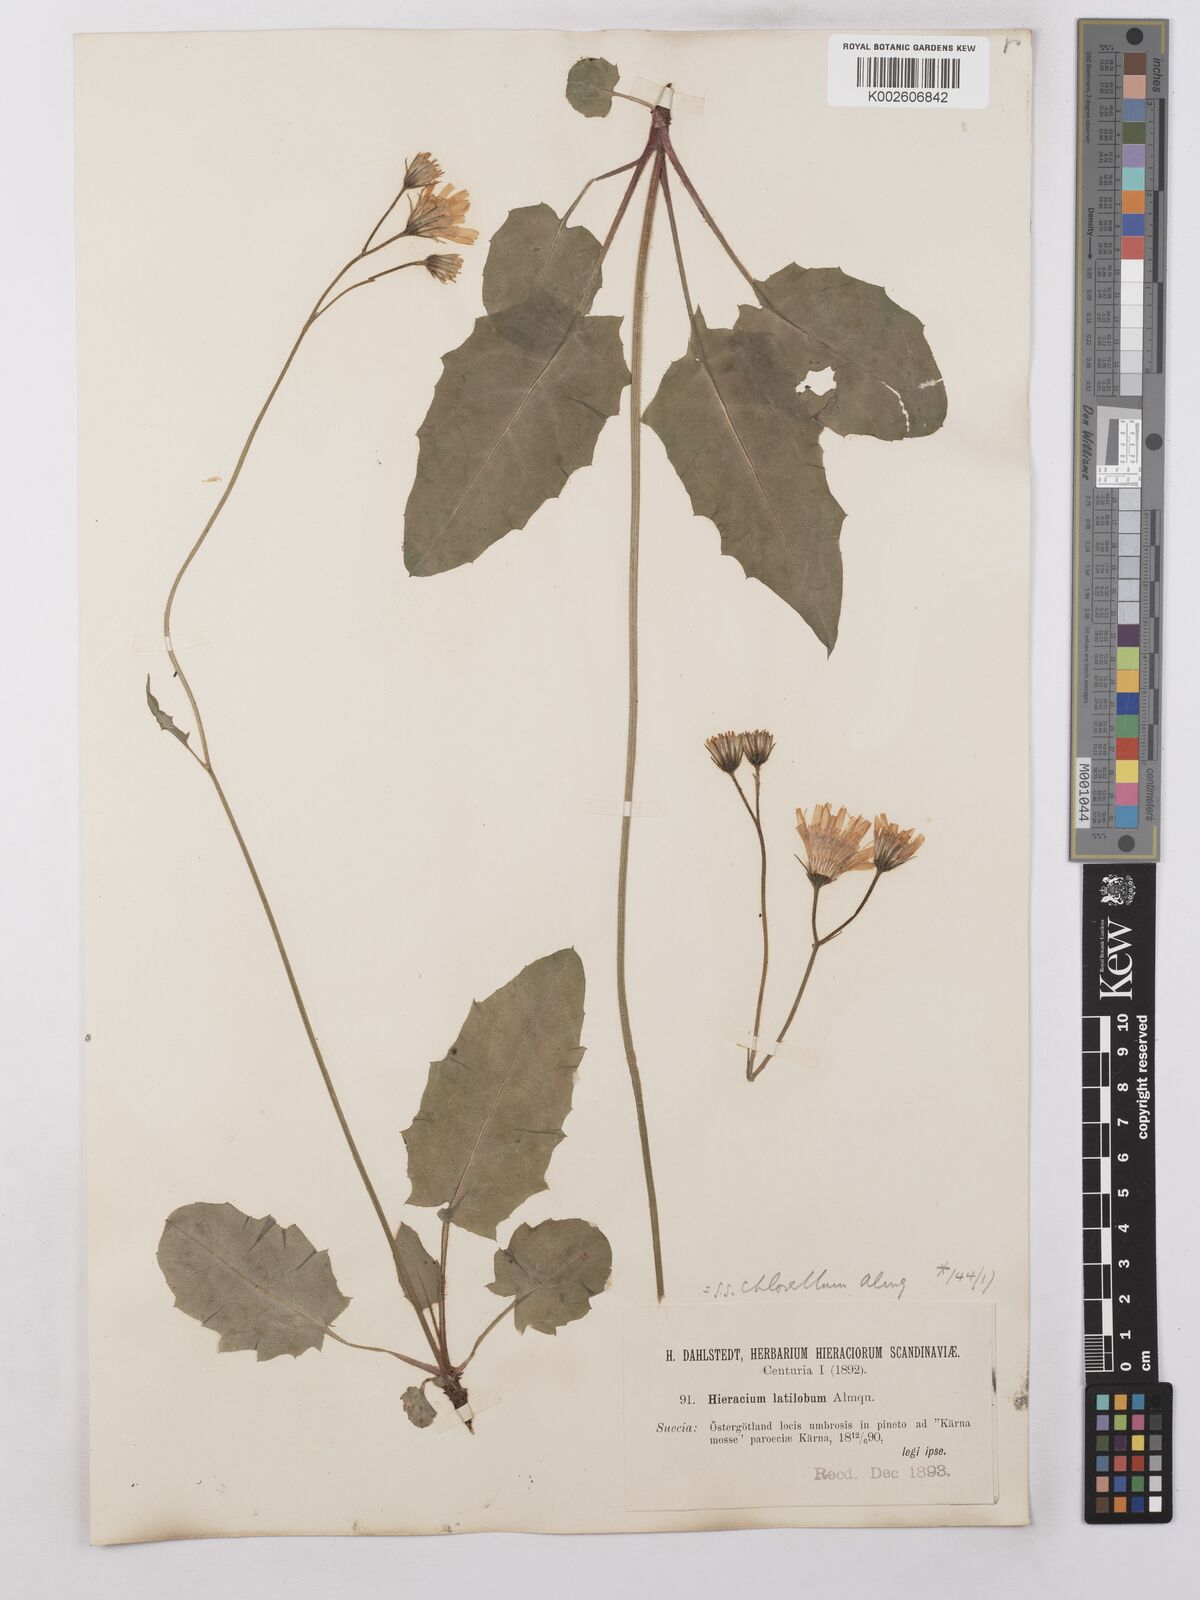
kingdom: Plantae
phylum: Tracheophyta
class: Magnoliopsida
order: Asterales
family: Asteraceae
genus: Hieracium
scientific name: Hieracium chlorellum
